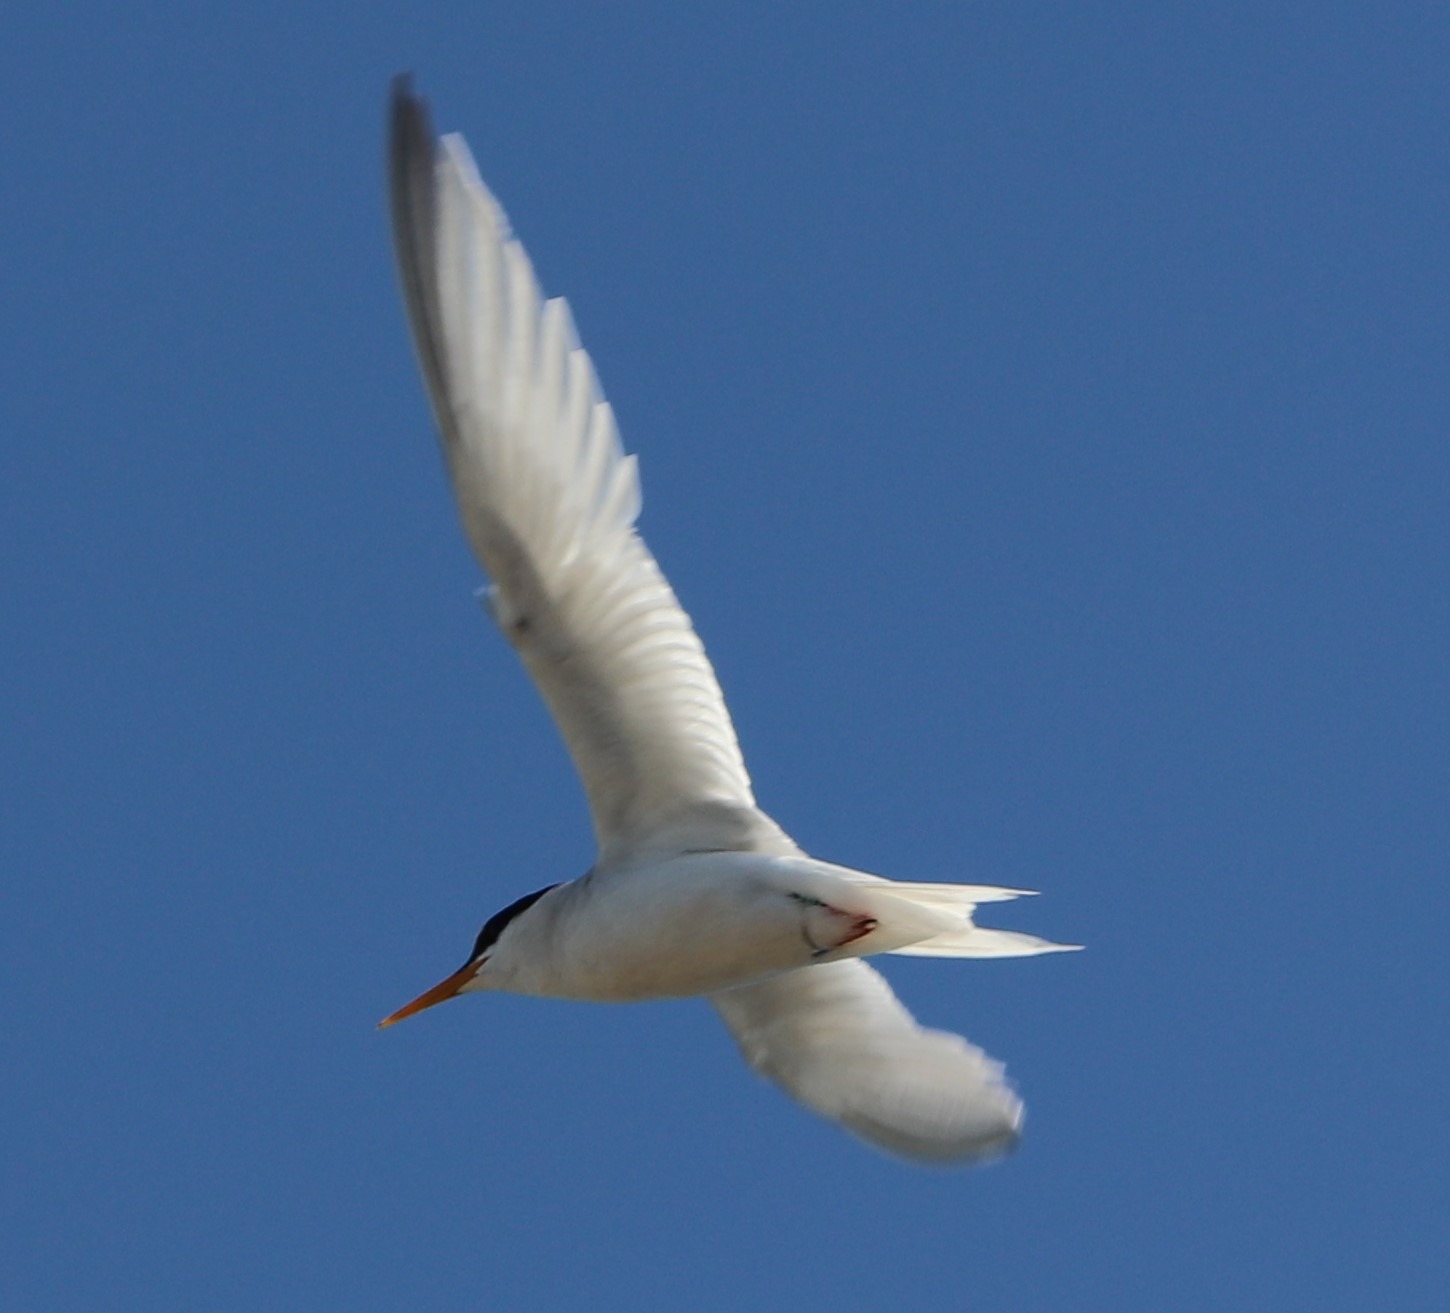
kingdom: Animalia
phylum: Chordata
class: Aves
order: Charadriiformes
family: Laridae
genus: Sternula
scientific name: Sternula albifrons
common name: Dværgterne
